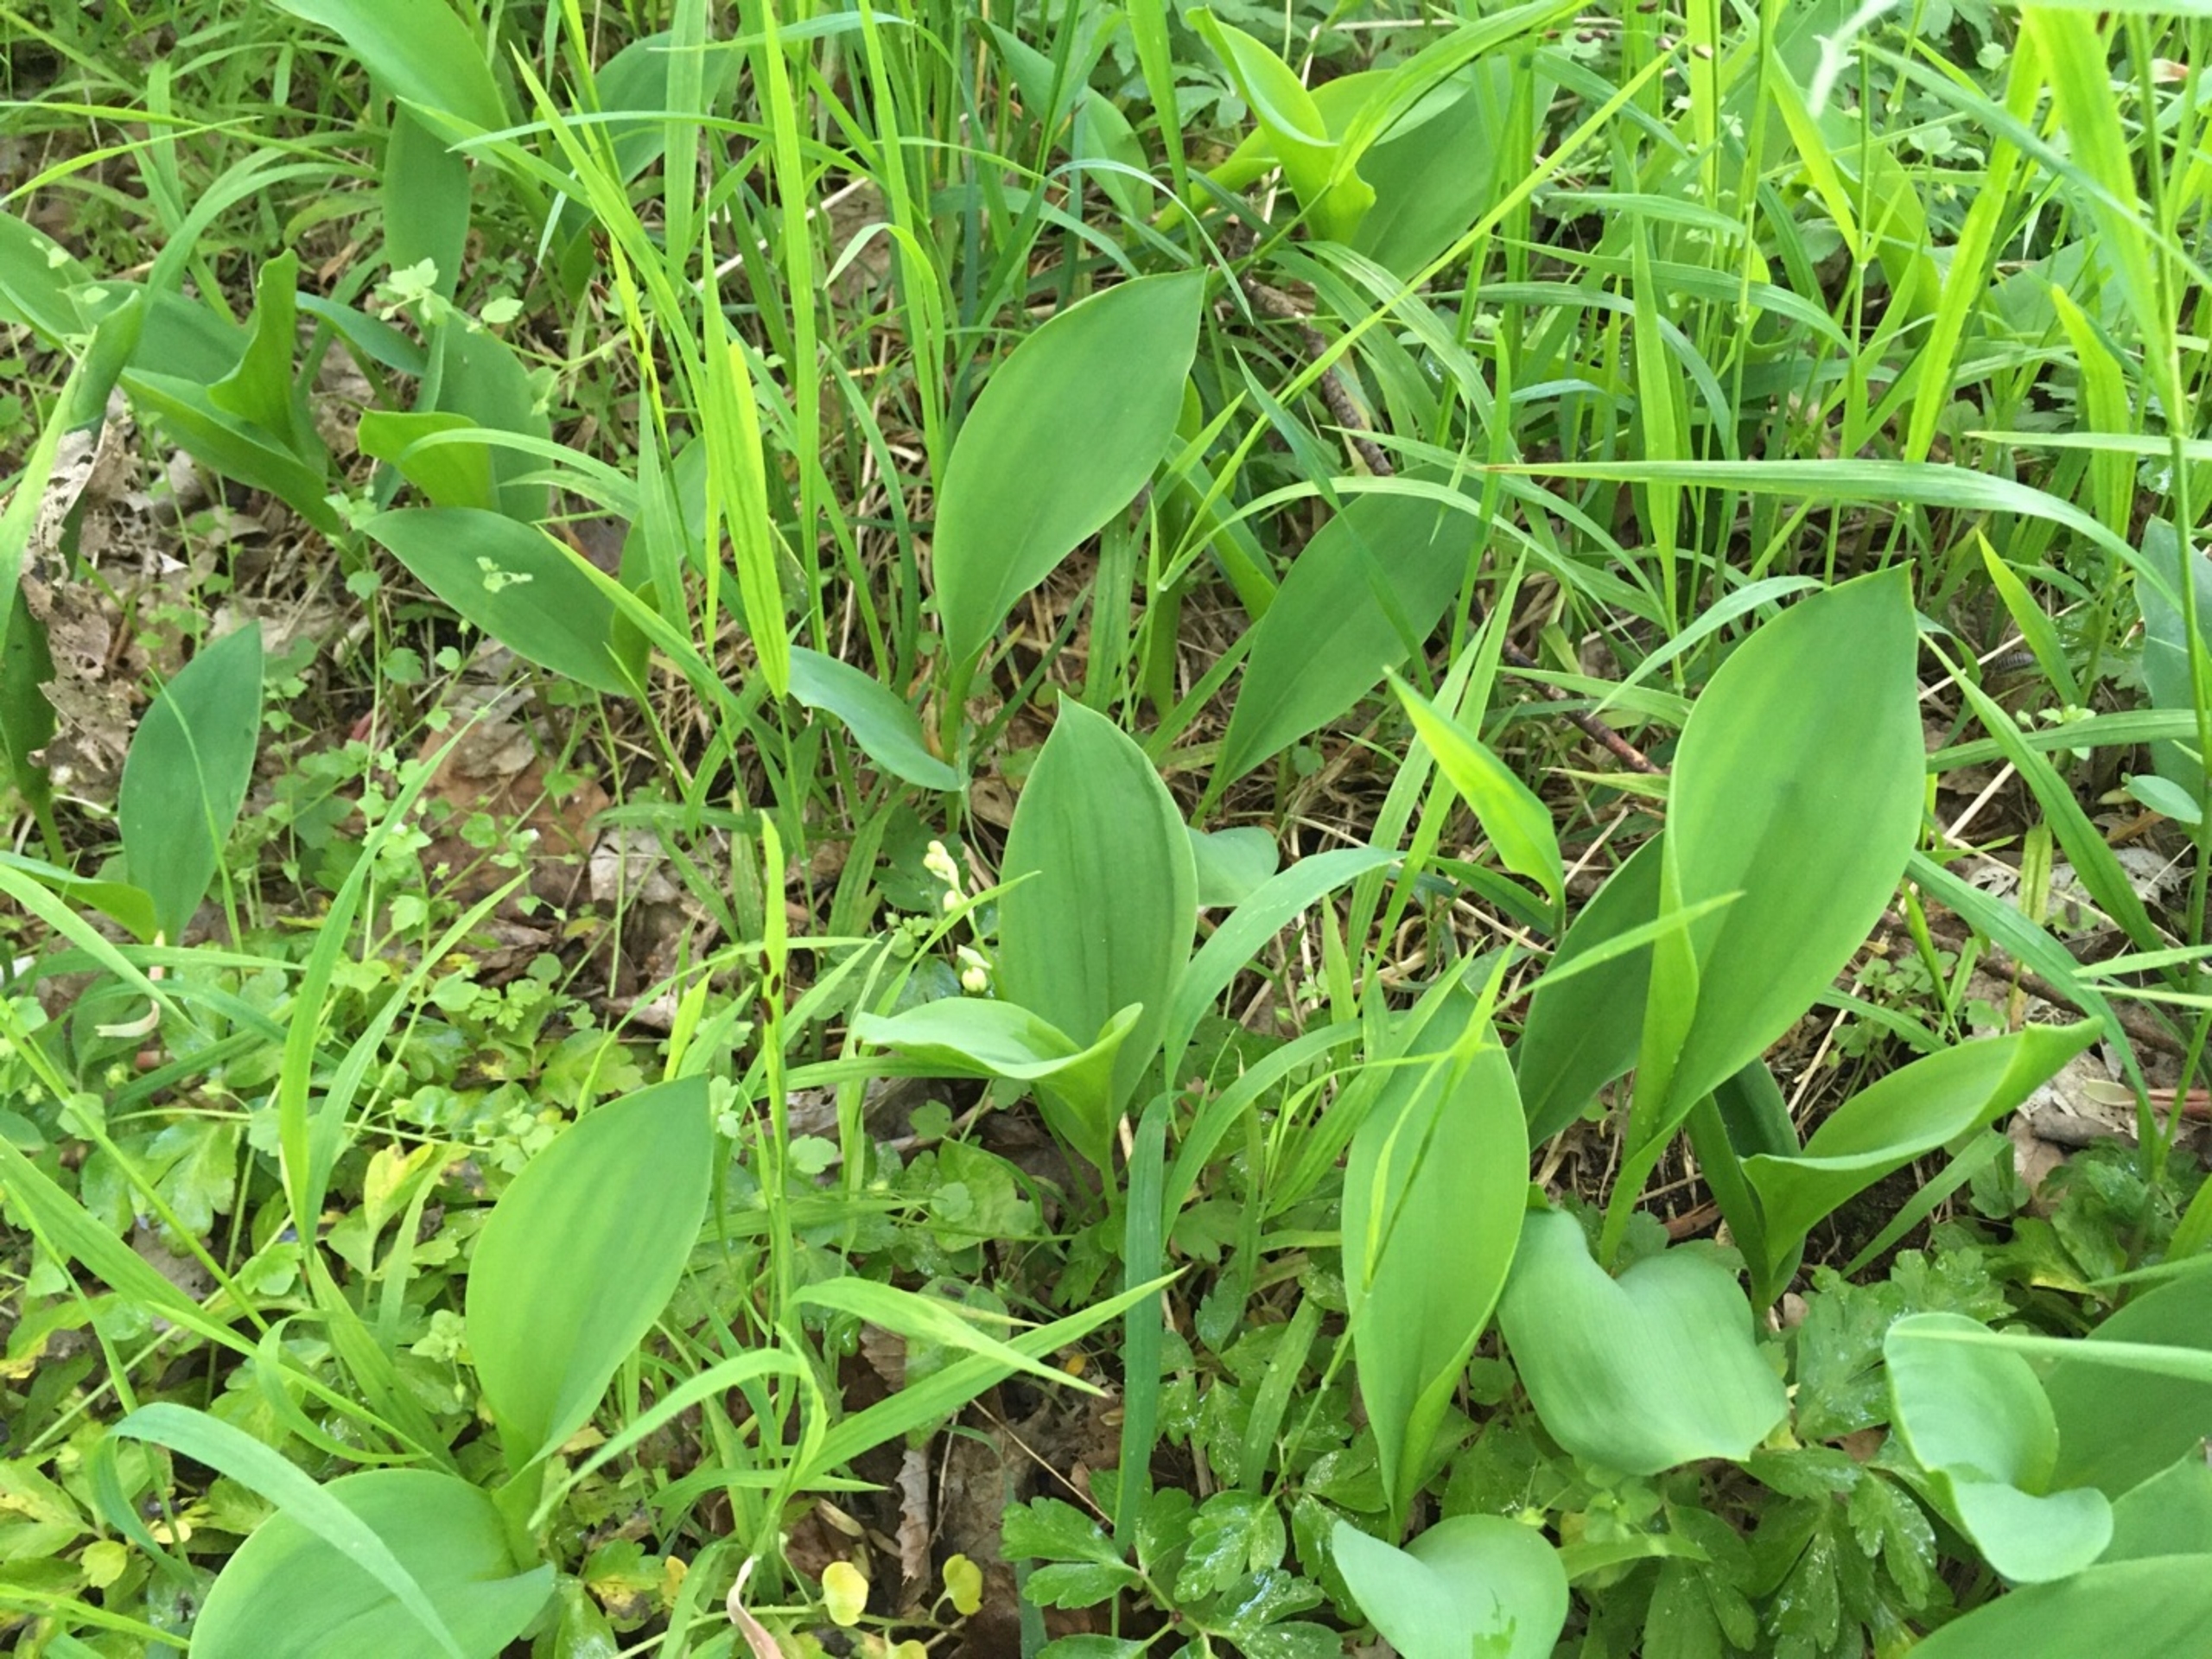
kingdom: Plantae
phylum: Tracheophyta
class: Liliopsida
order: Asparagales
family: Asparagaceae
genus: Convallaria
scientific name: Convallaria majalis
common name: Liljekonval
